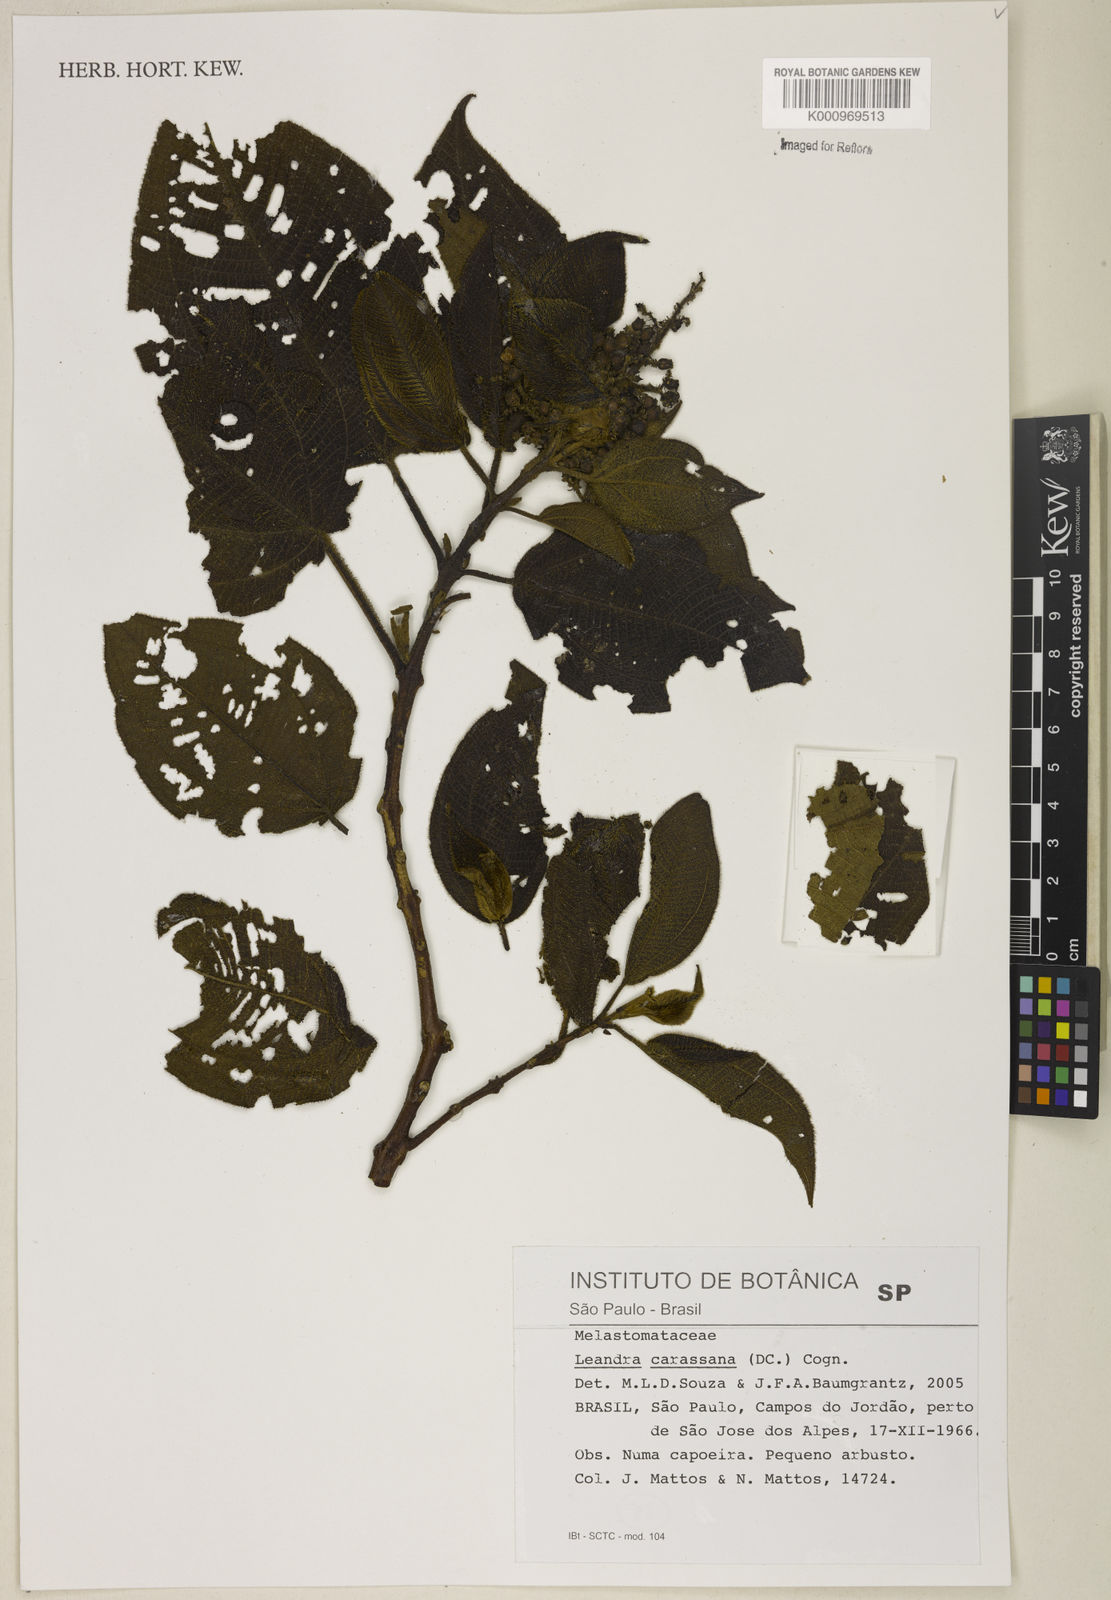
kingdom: Plantae
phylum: Tracheophyta
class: Magnoliopsida
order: Myrtales
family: Melastomataceae
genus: Miconia
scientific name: Miconia sublanata
